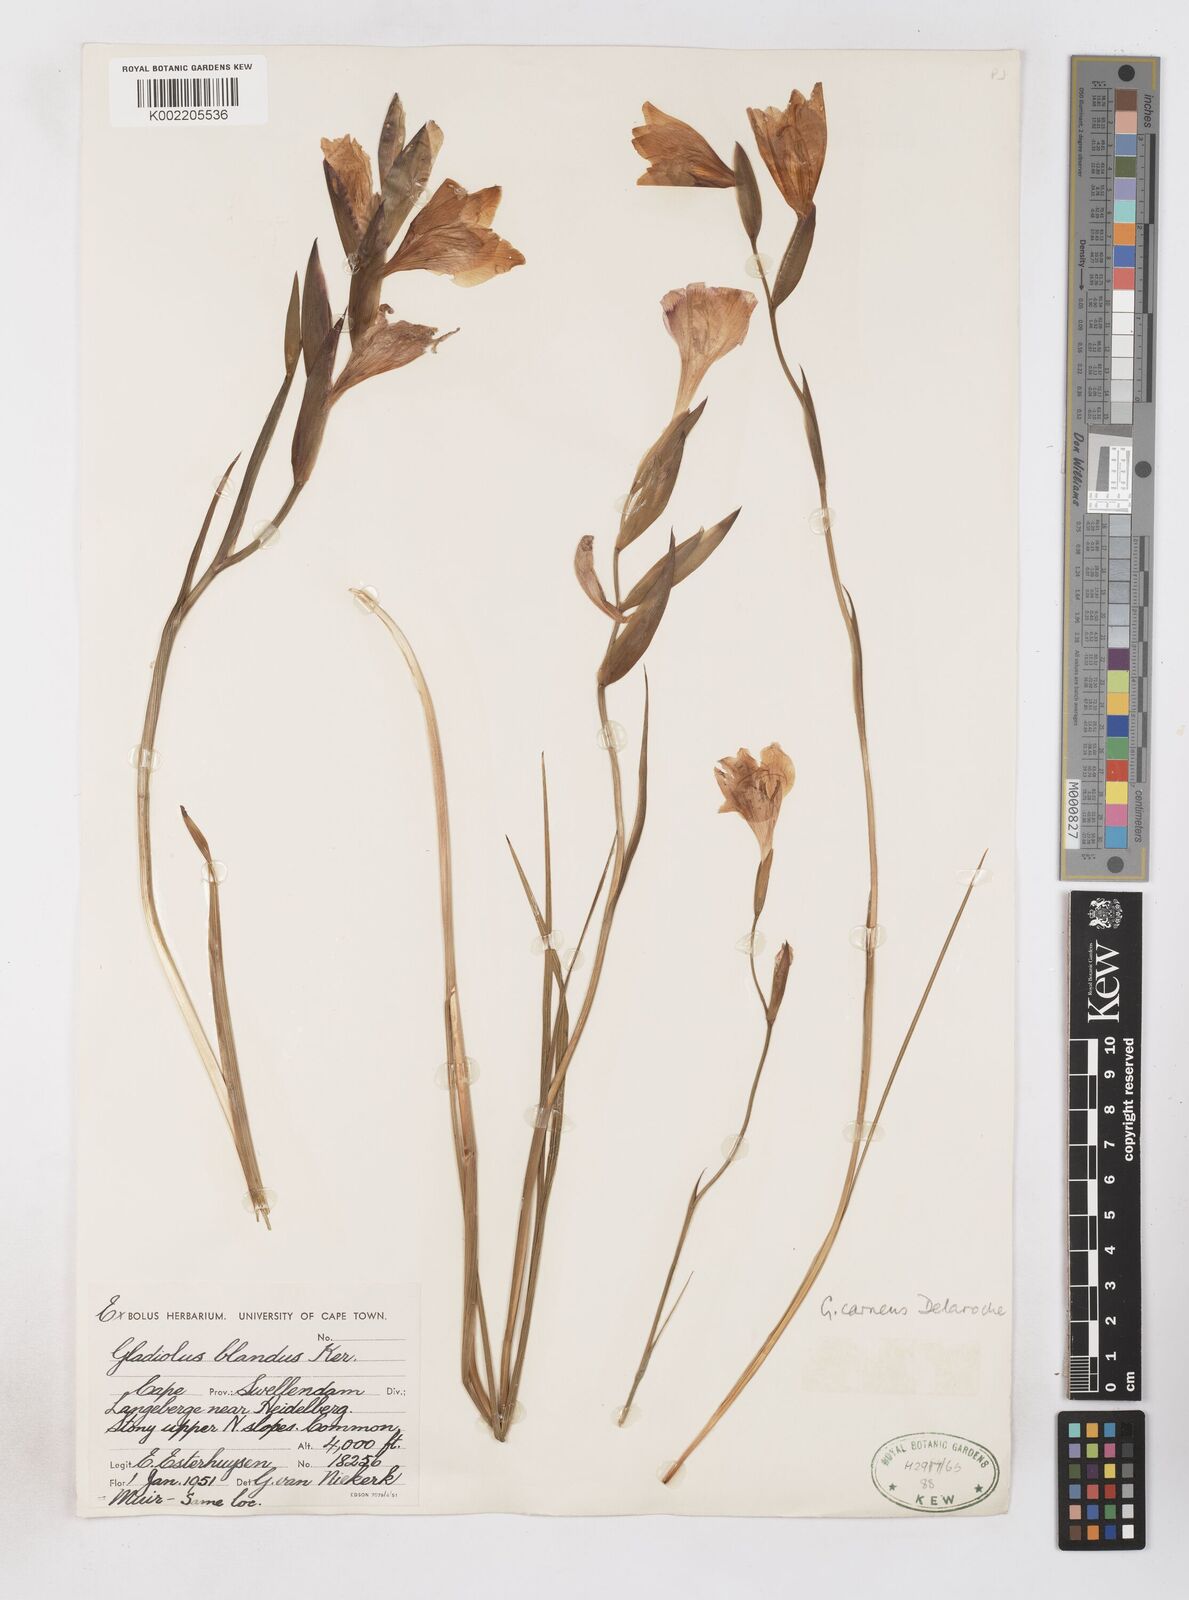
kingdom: Plantae
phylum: Tracheophyta
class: Liliopsida
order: Asparagales
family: Iridaceae
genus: Gladiolus
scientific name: Gladiolus carneus
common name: Painted-lady
